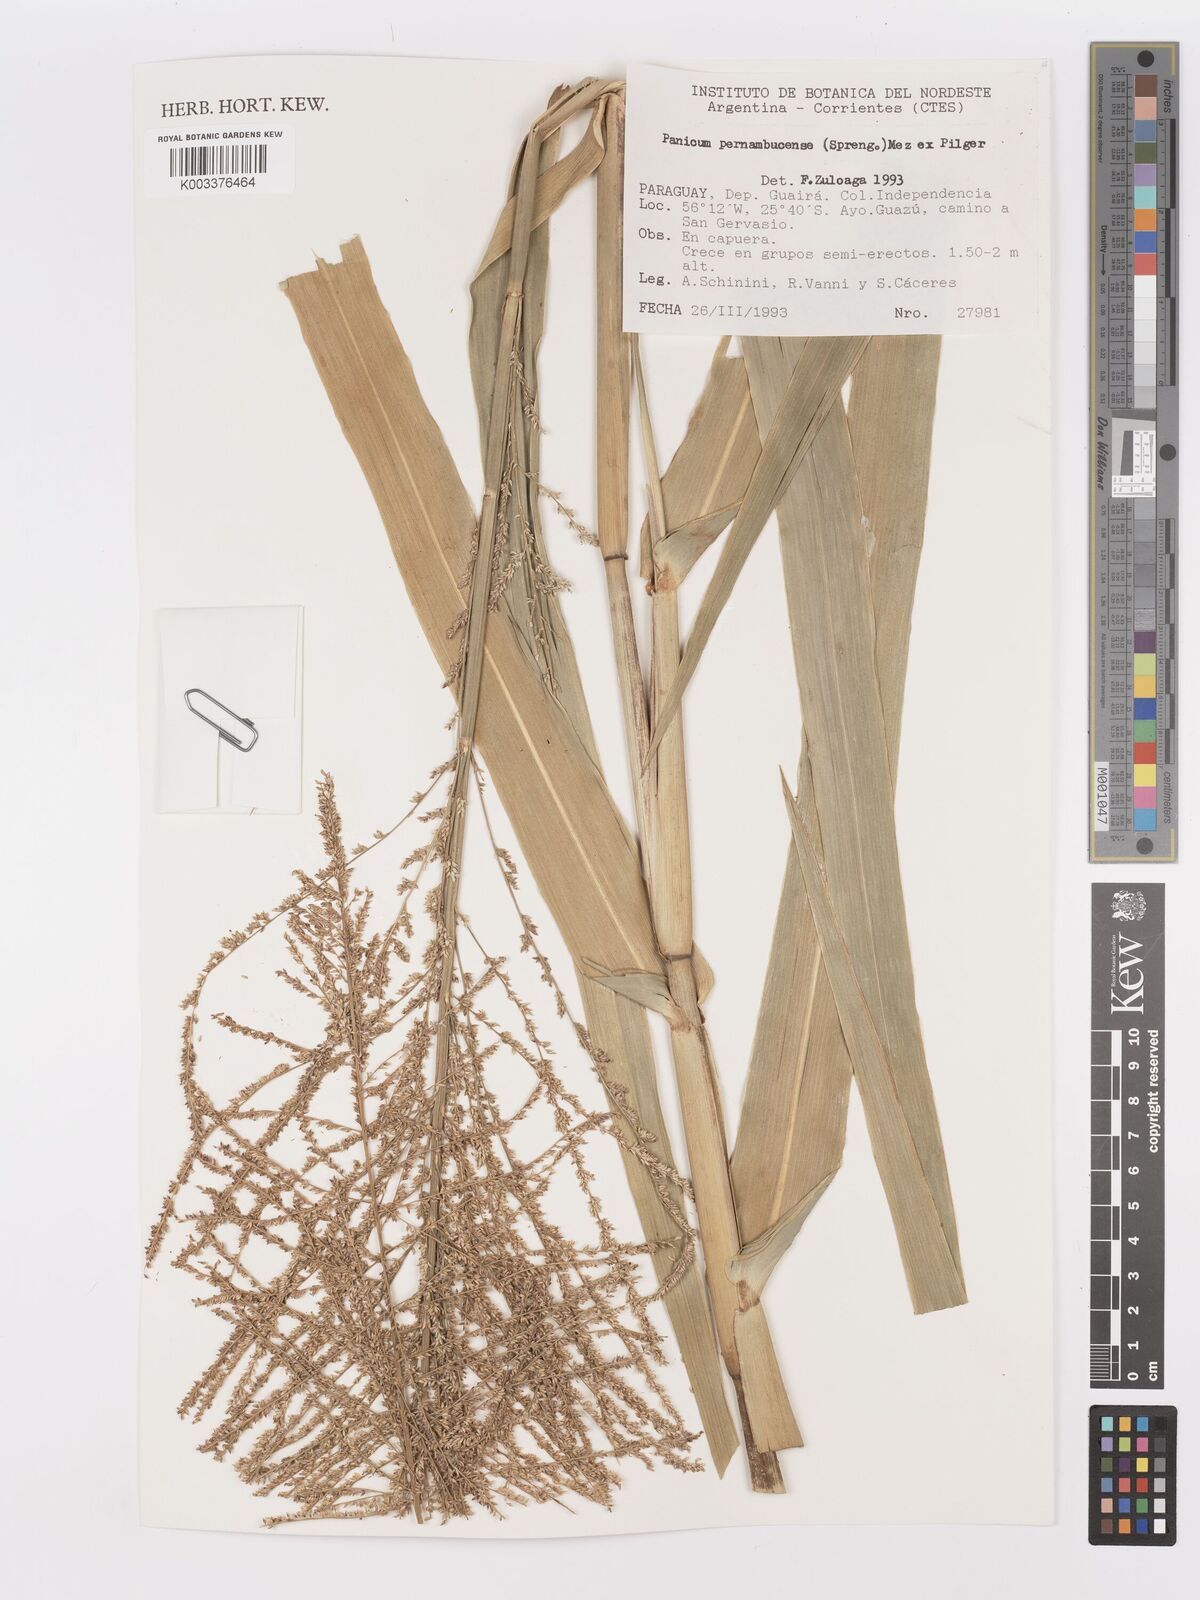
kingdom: Plantae
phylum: Tracheophyta
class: Liliopsida
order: Poales
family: Poaceae
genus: Hymenachne
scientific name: Hymenachne pernambucensis
